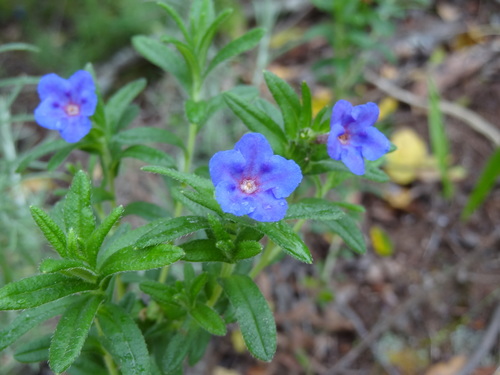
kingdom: Plantae
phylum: Tracheophyta
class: Magnoliopsida
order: Boraginales
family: Boraginaceae
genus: Glandora
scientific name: Glandora prostrata
